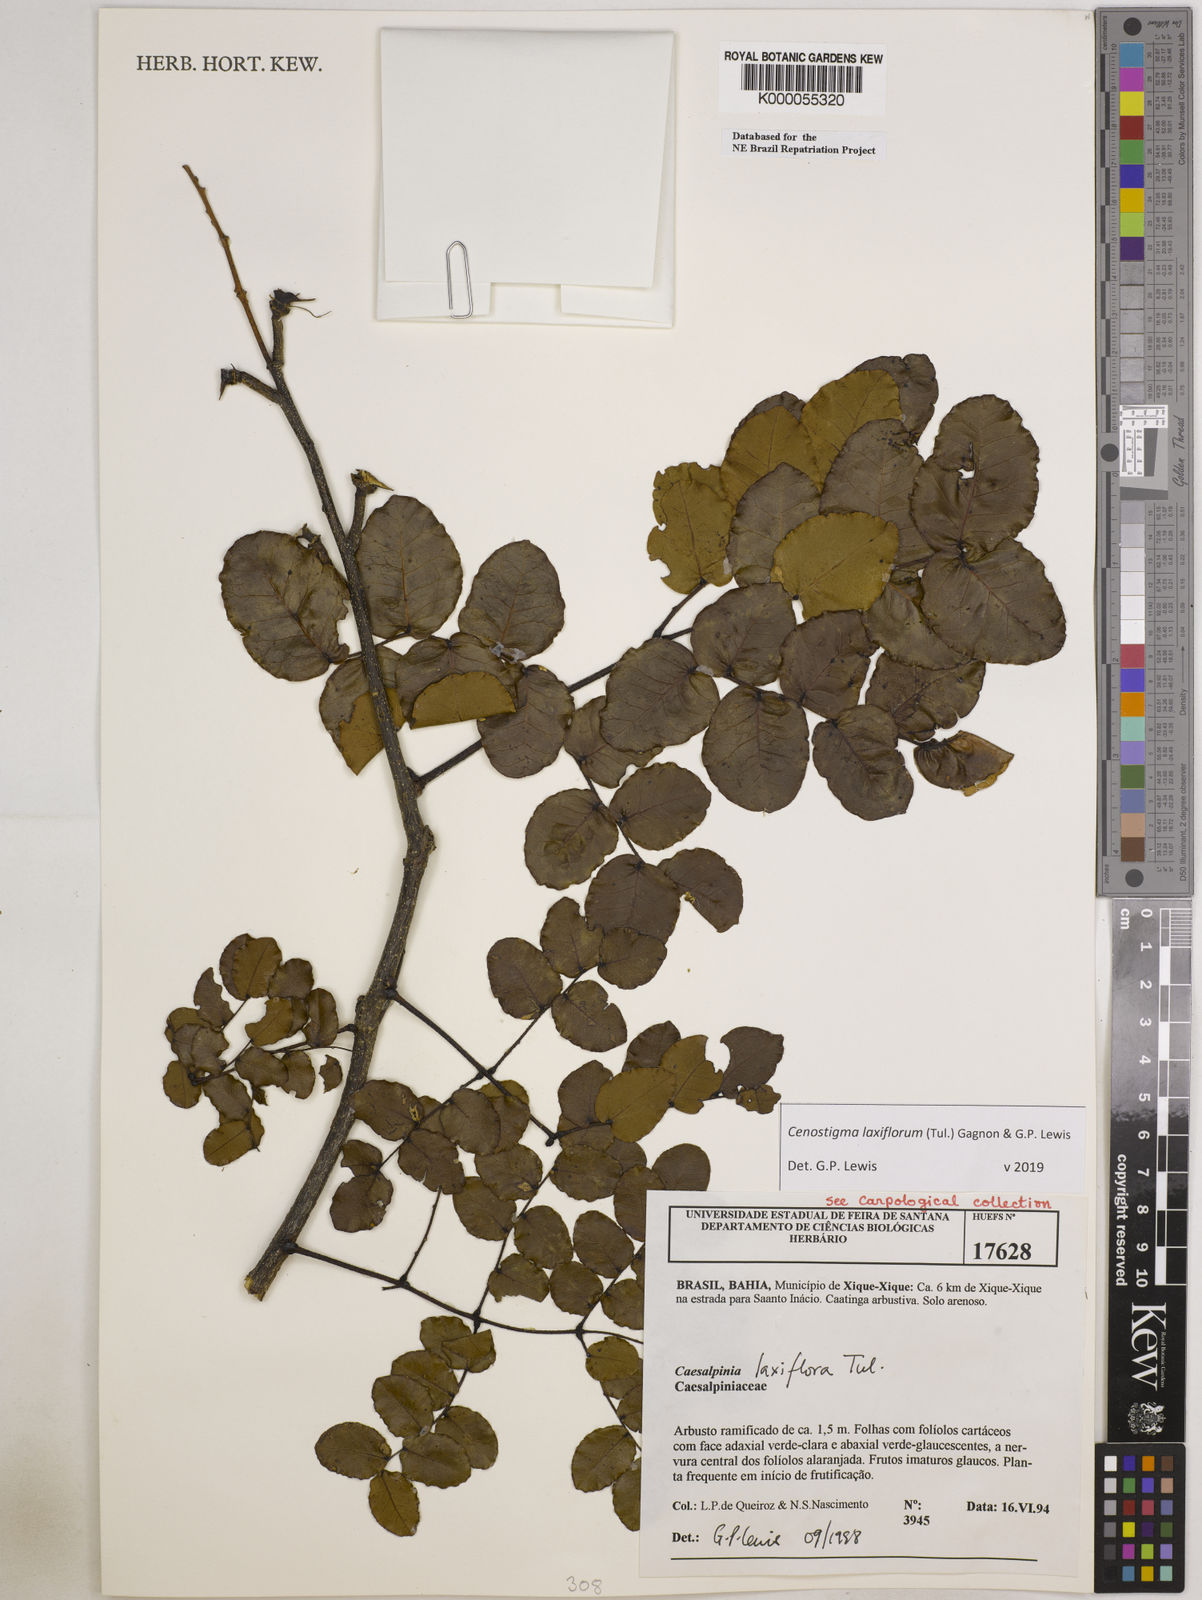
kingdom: Plantae
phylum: Tracheophyta
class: Magnoliopsida
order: Fabales
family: Fabaceae
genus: Cenostigma
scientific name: Cenostigma laxiflorum
